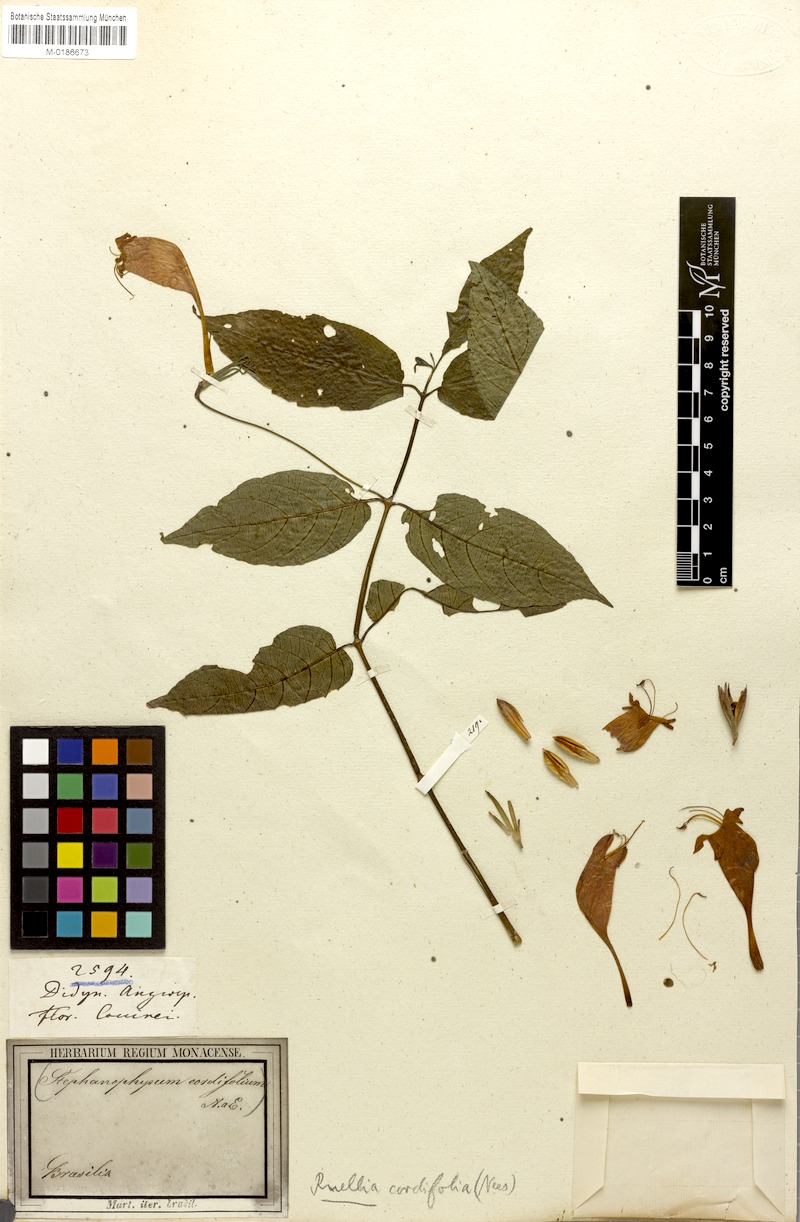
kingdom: Plantae
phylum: Tracheophyta
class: Magnoliopsida
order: Lamiales
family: Acanthaceae
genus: Strobilanthes
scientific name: Strobilanthes cordifolia
